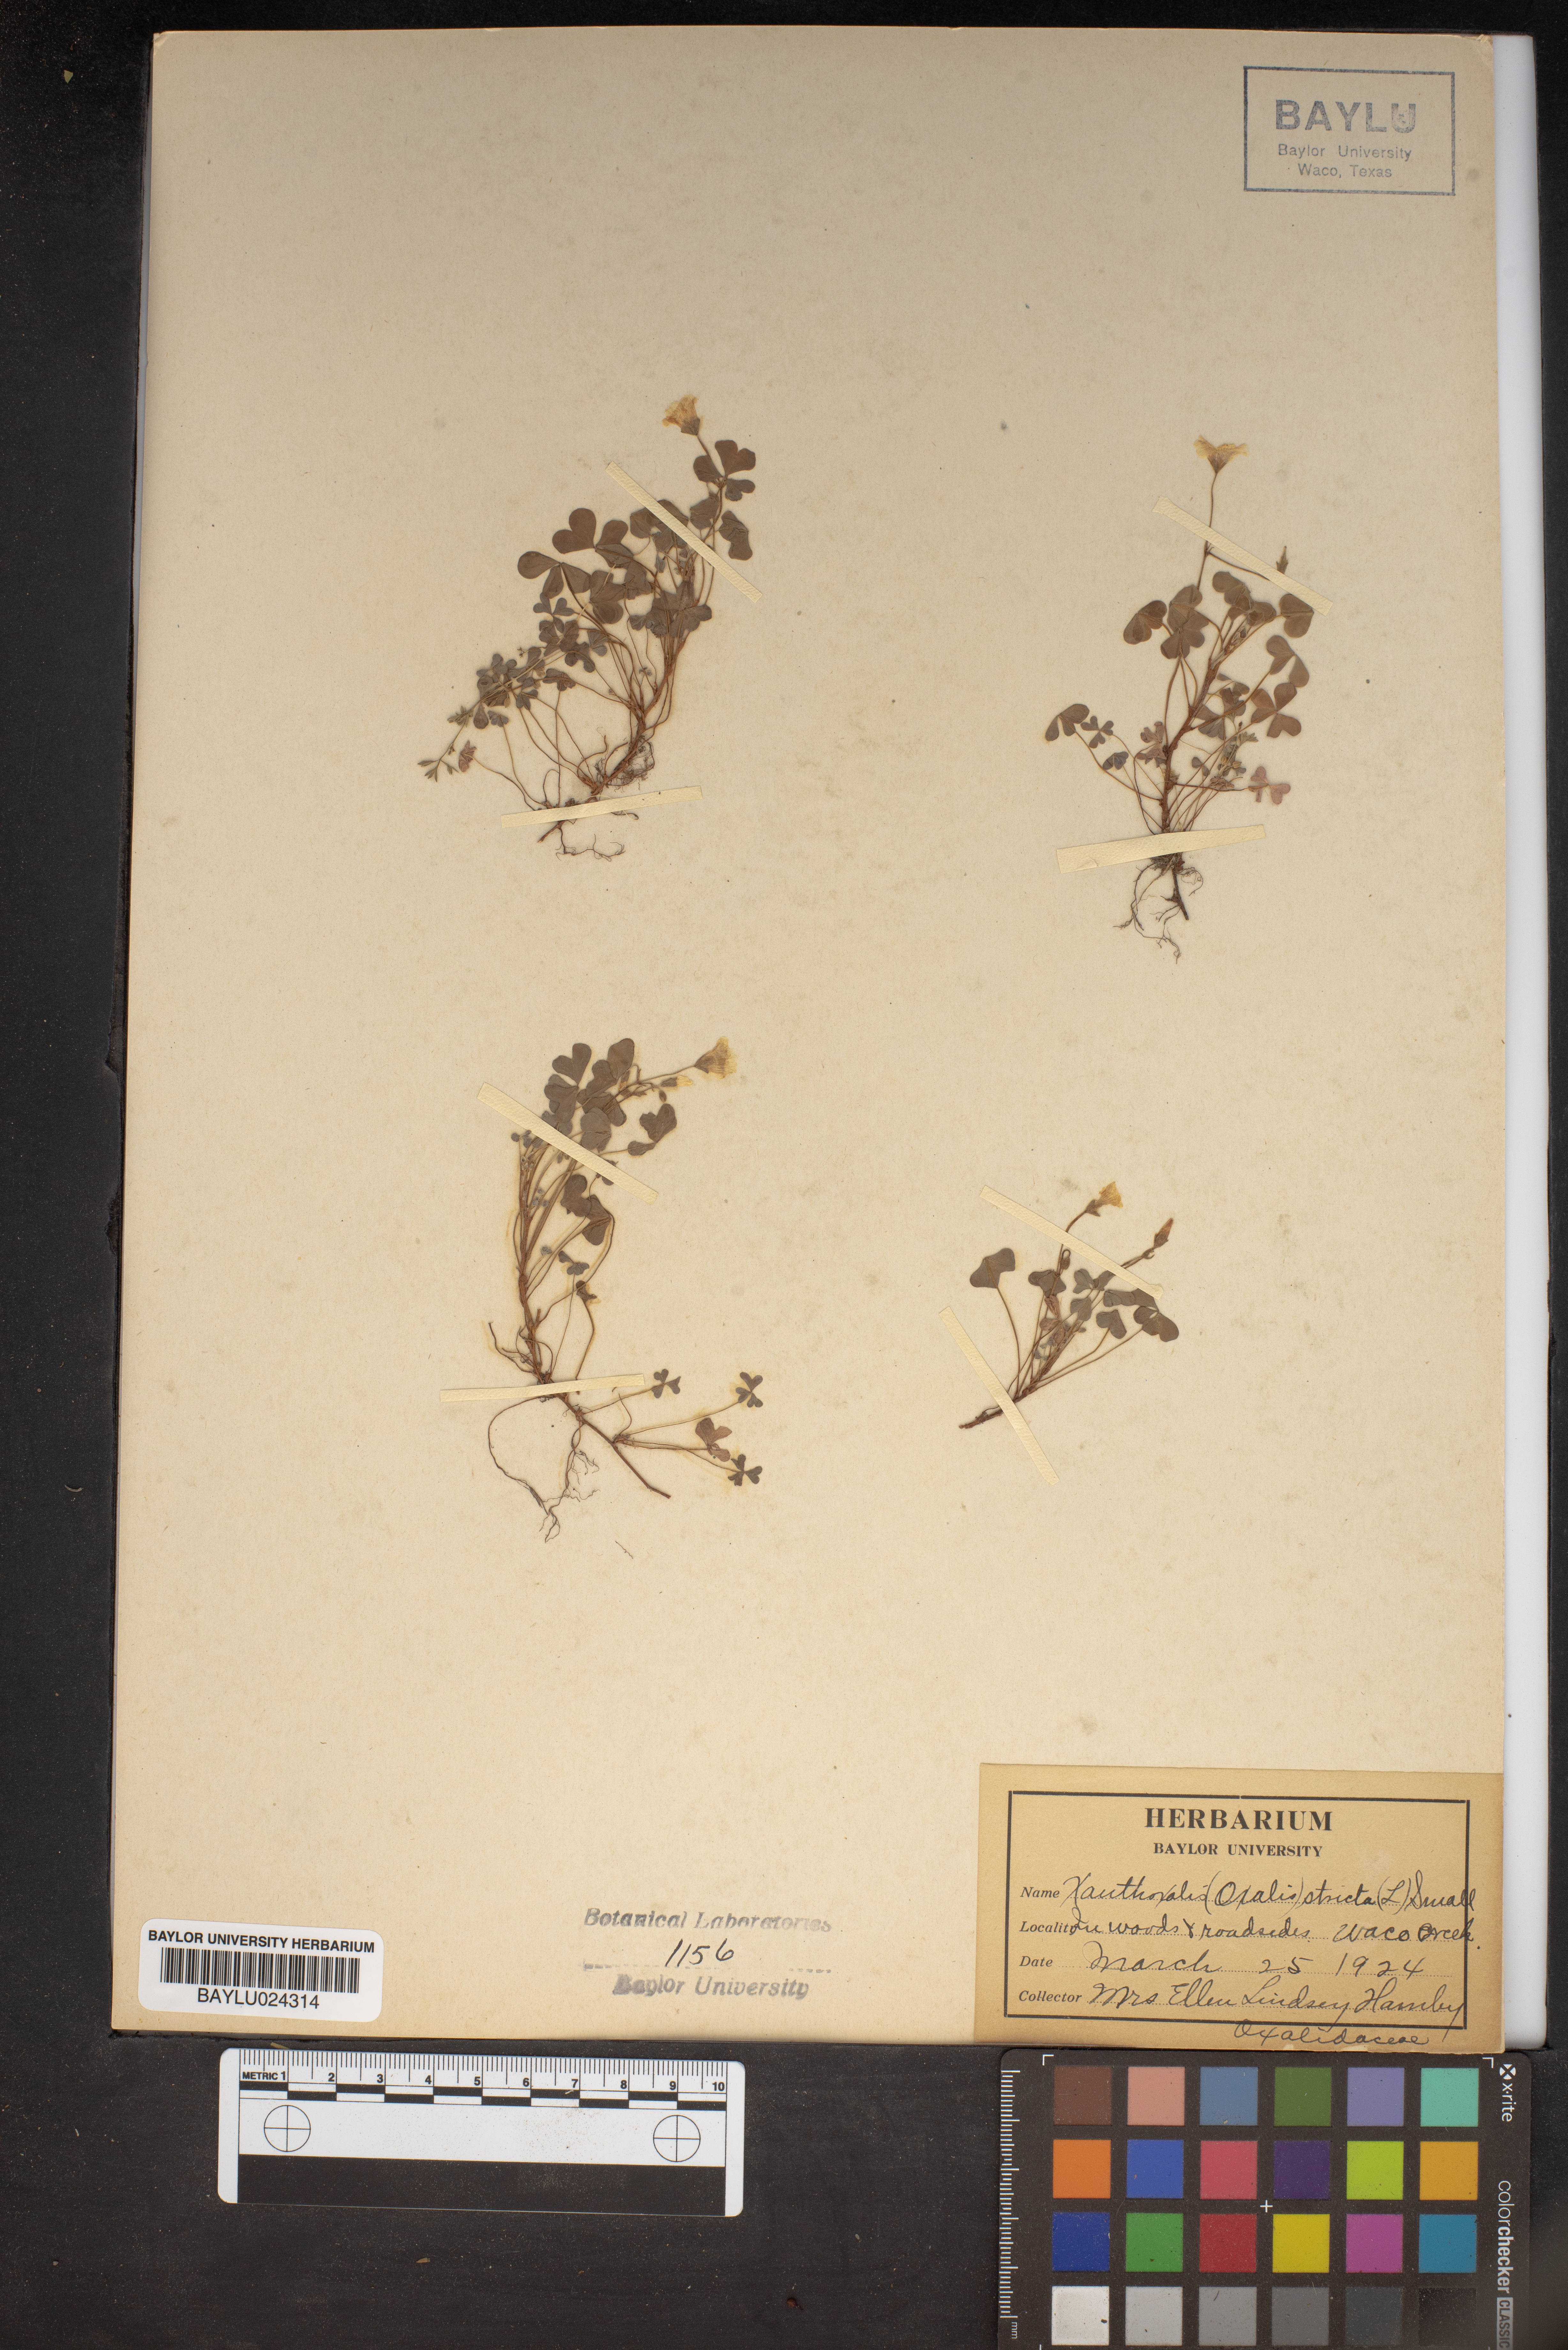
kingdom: Plantae
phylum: Tracheophyta
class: Magnoliopsida
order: Oxalidales
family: Oxalidaceae
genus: Oxalis
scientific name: Oxalis stricta
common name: Upright yellow-sorrel
